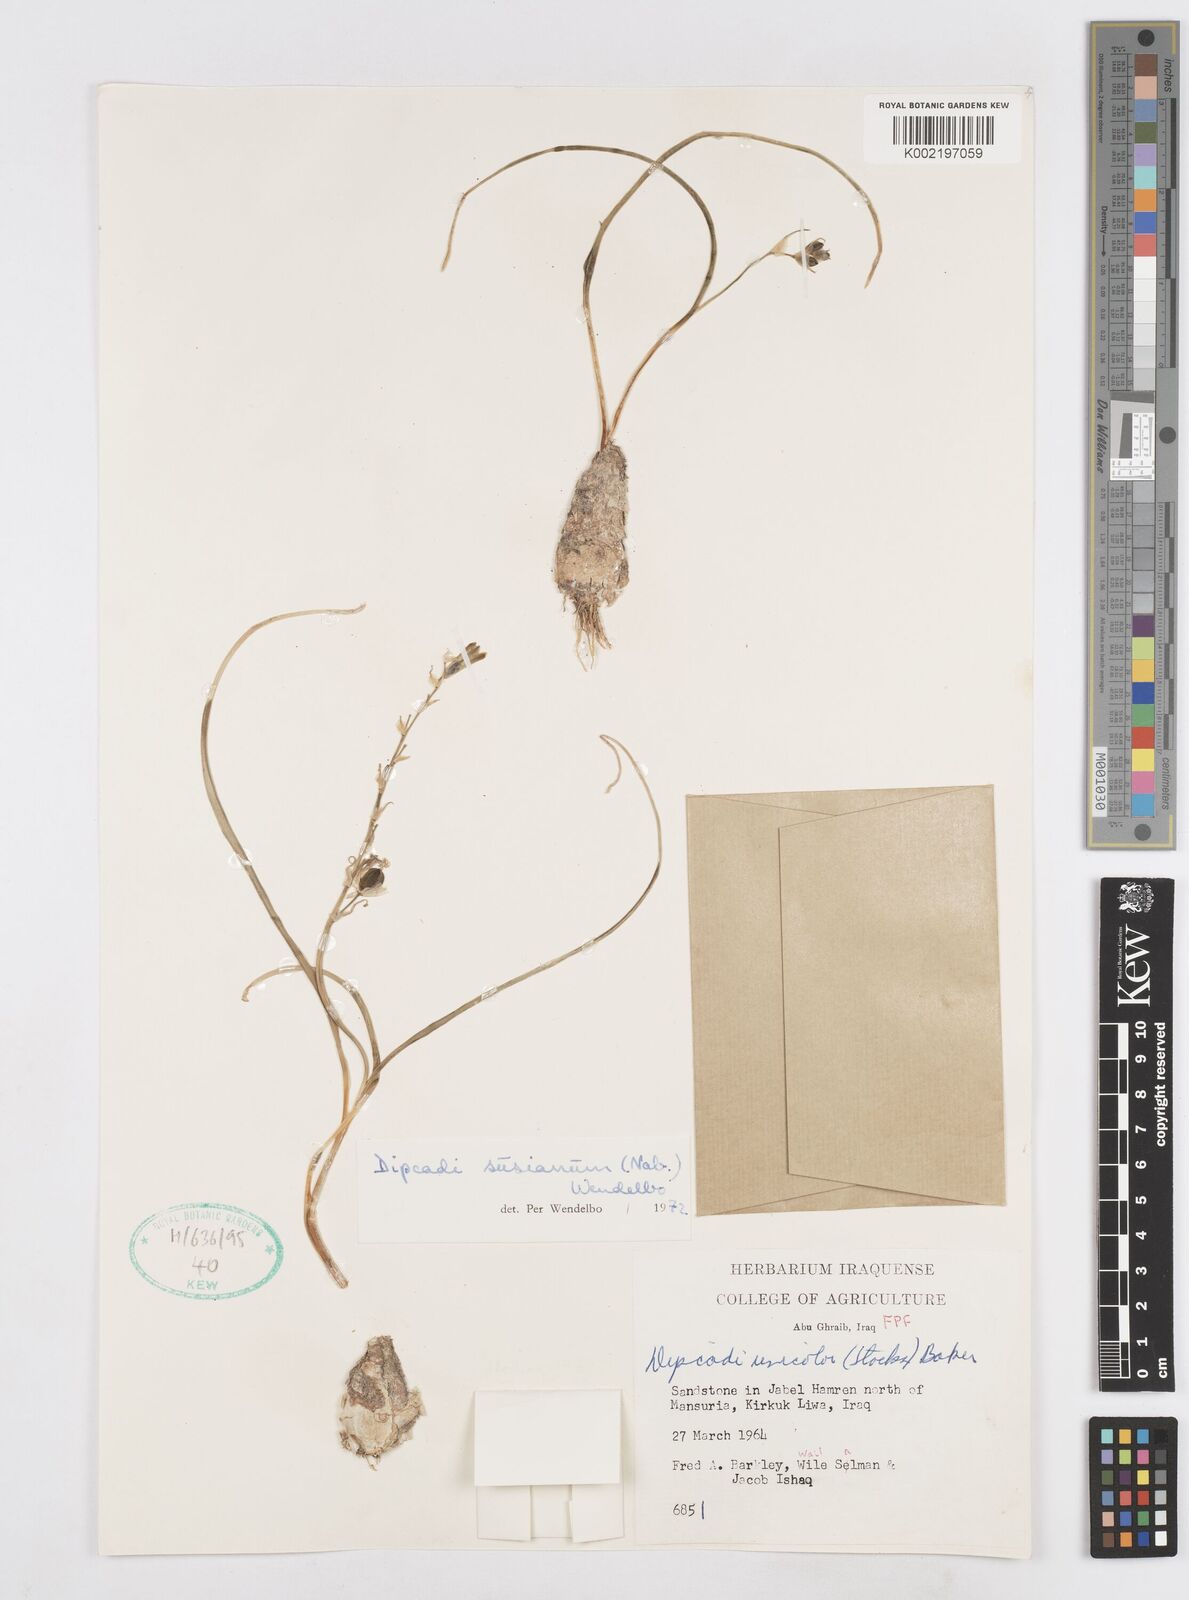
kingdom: Plantae
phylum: Tracheophyta
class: Liliopsida
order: Asparagales
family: Asparagaceae
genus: Dipcadi
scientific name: Dipcadi susianum
